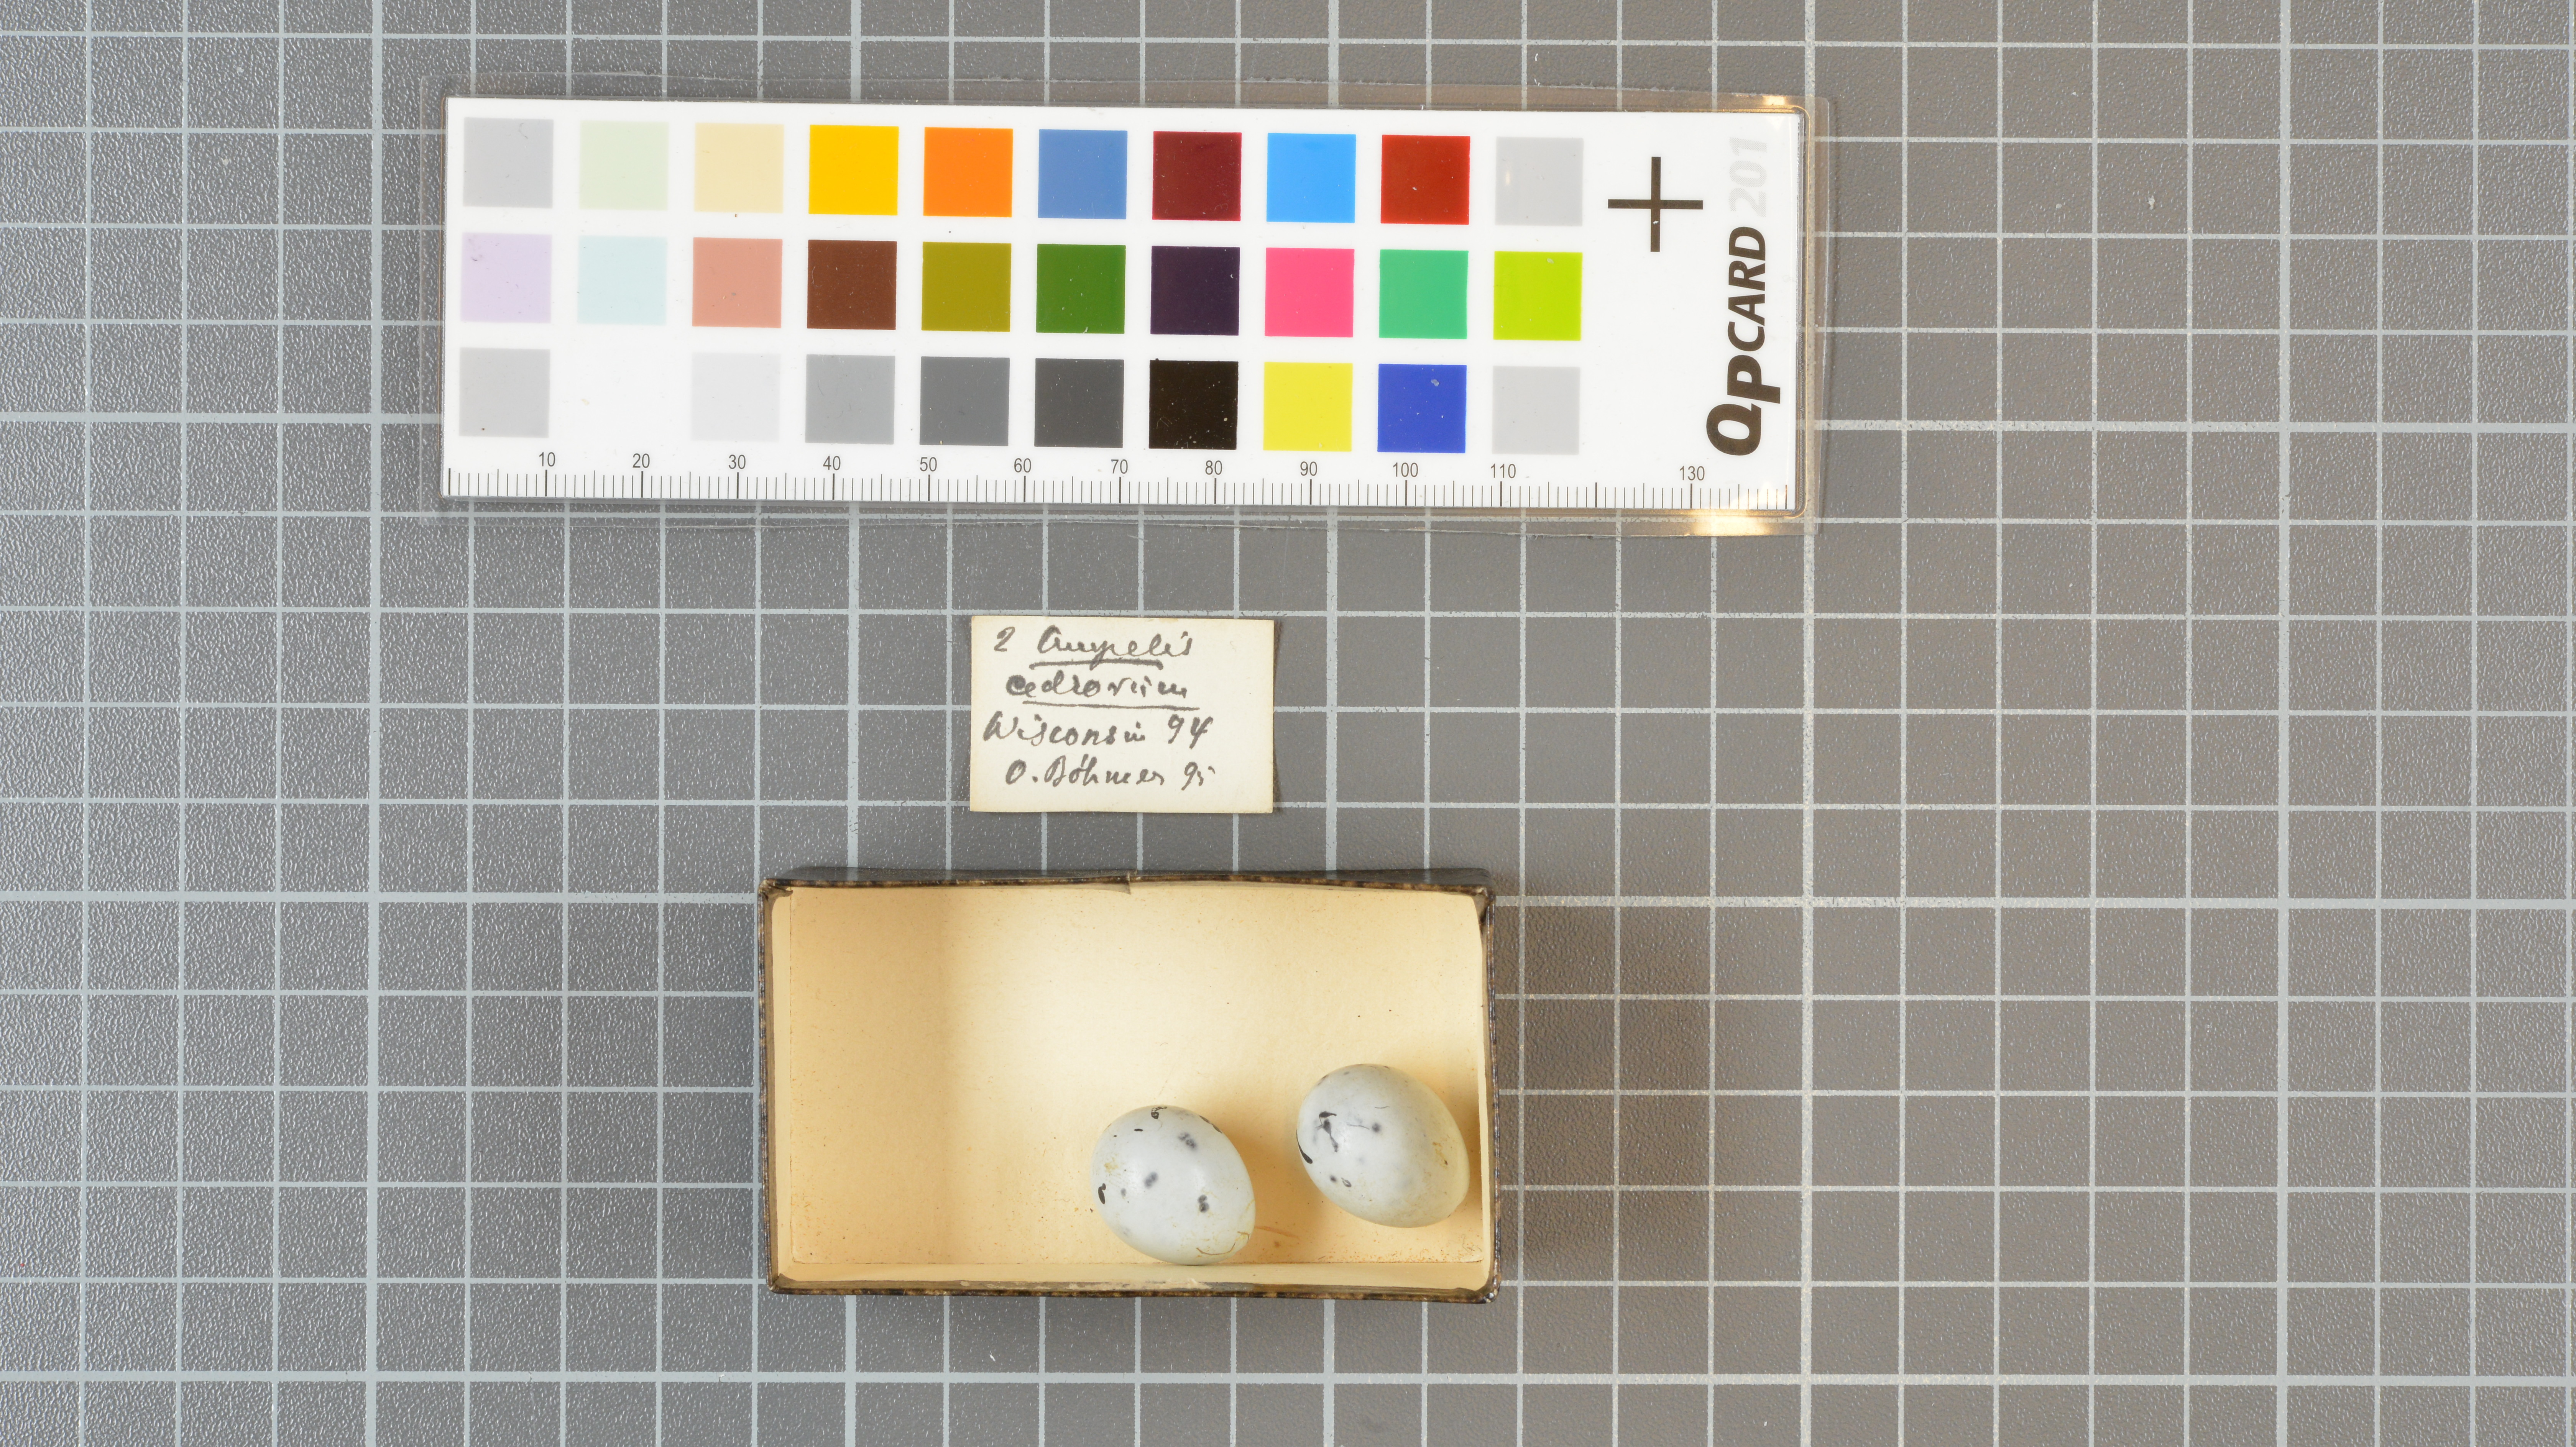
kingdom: Animalia
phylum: Chordata
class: Aves
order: Passeriformes
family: Bombycillidae
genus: Bombycilla
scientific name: Bombycilla cedrorum
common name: Cedar waxwing
